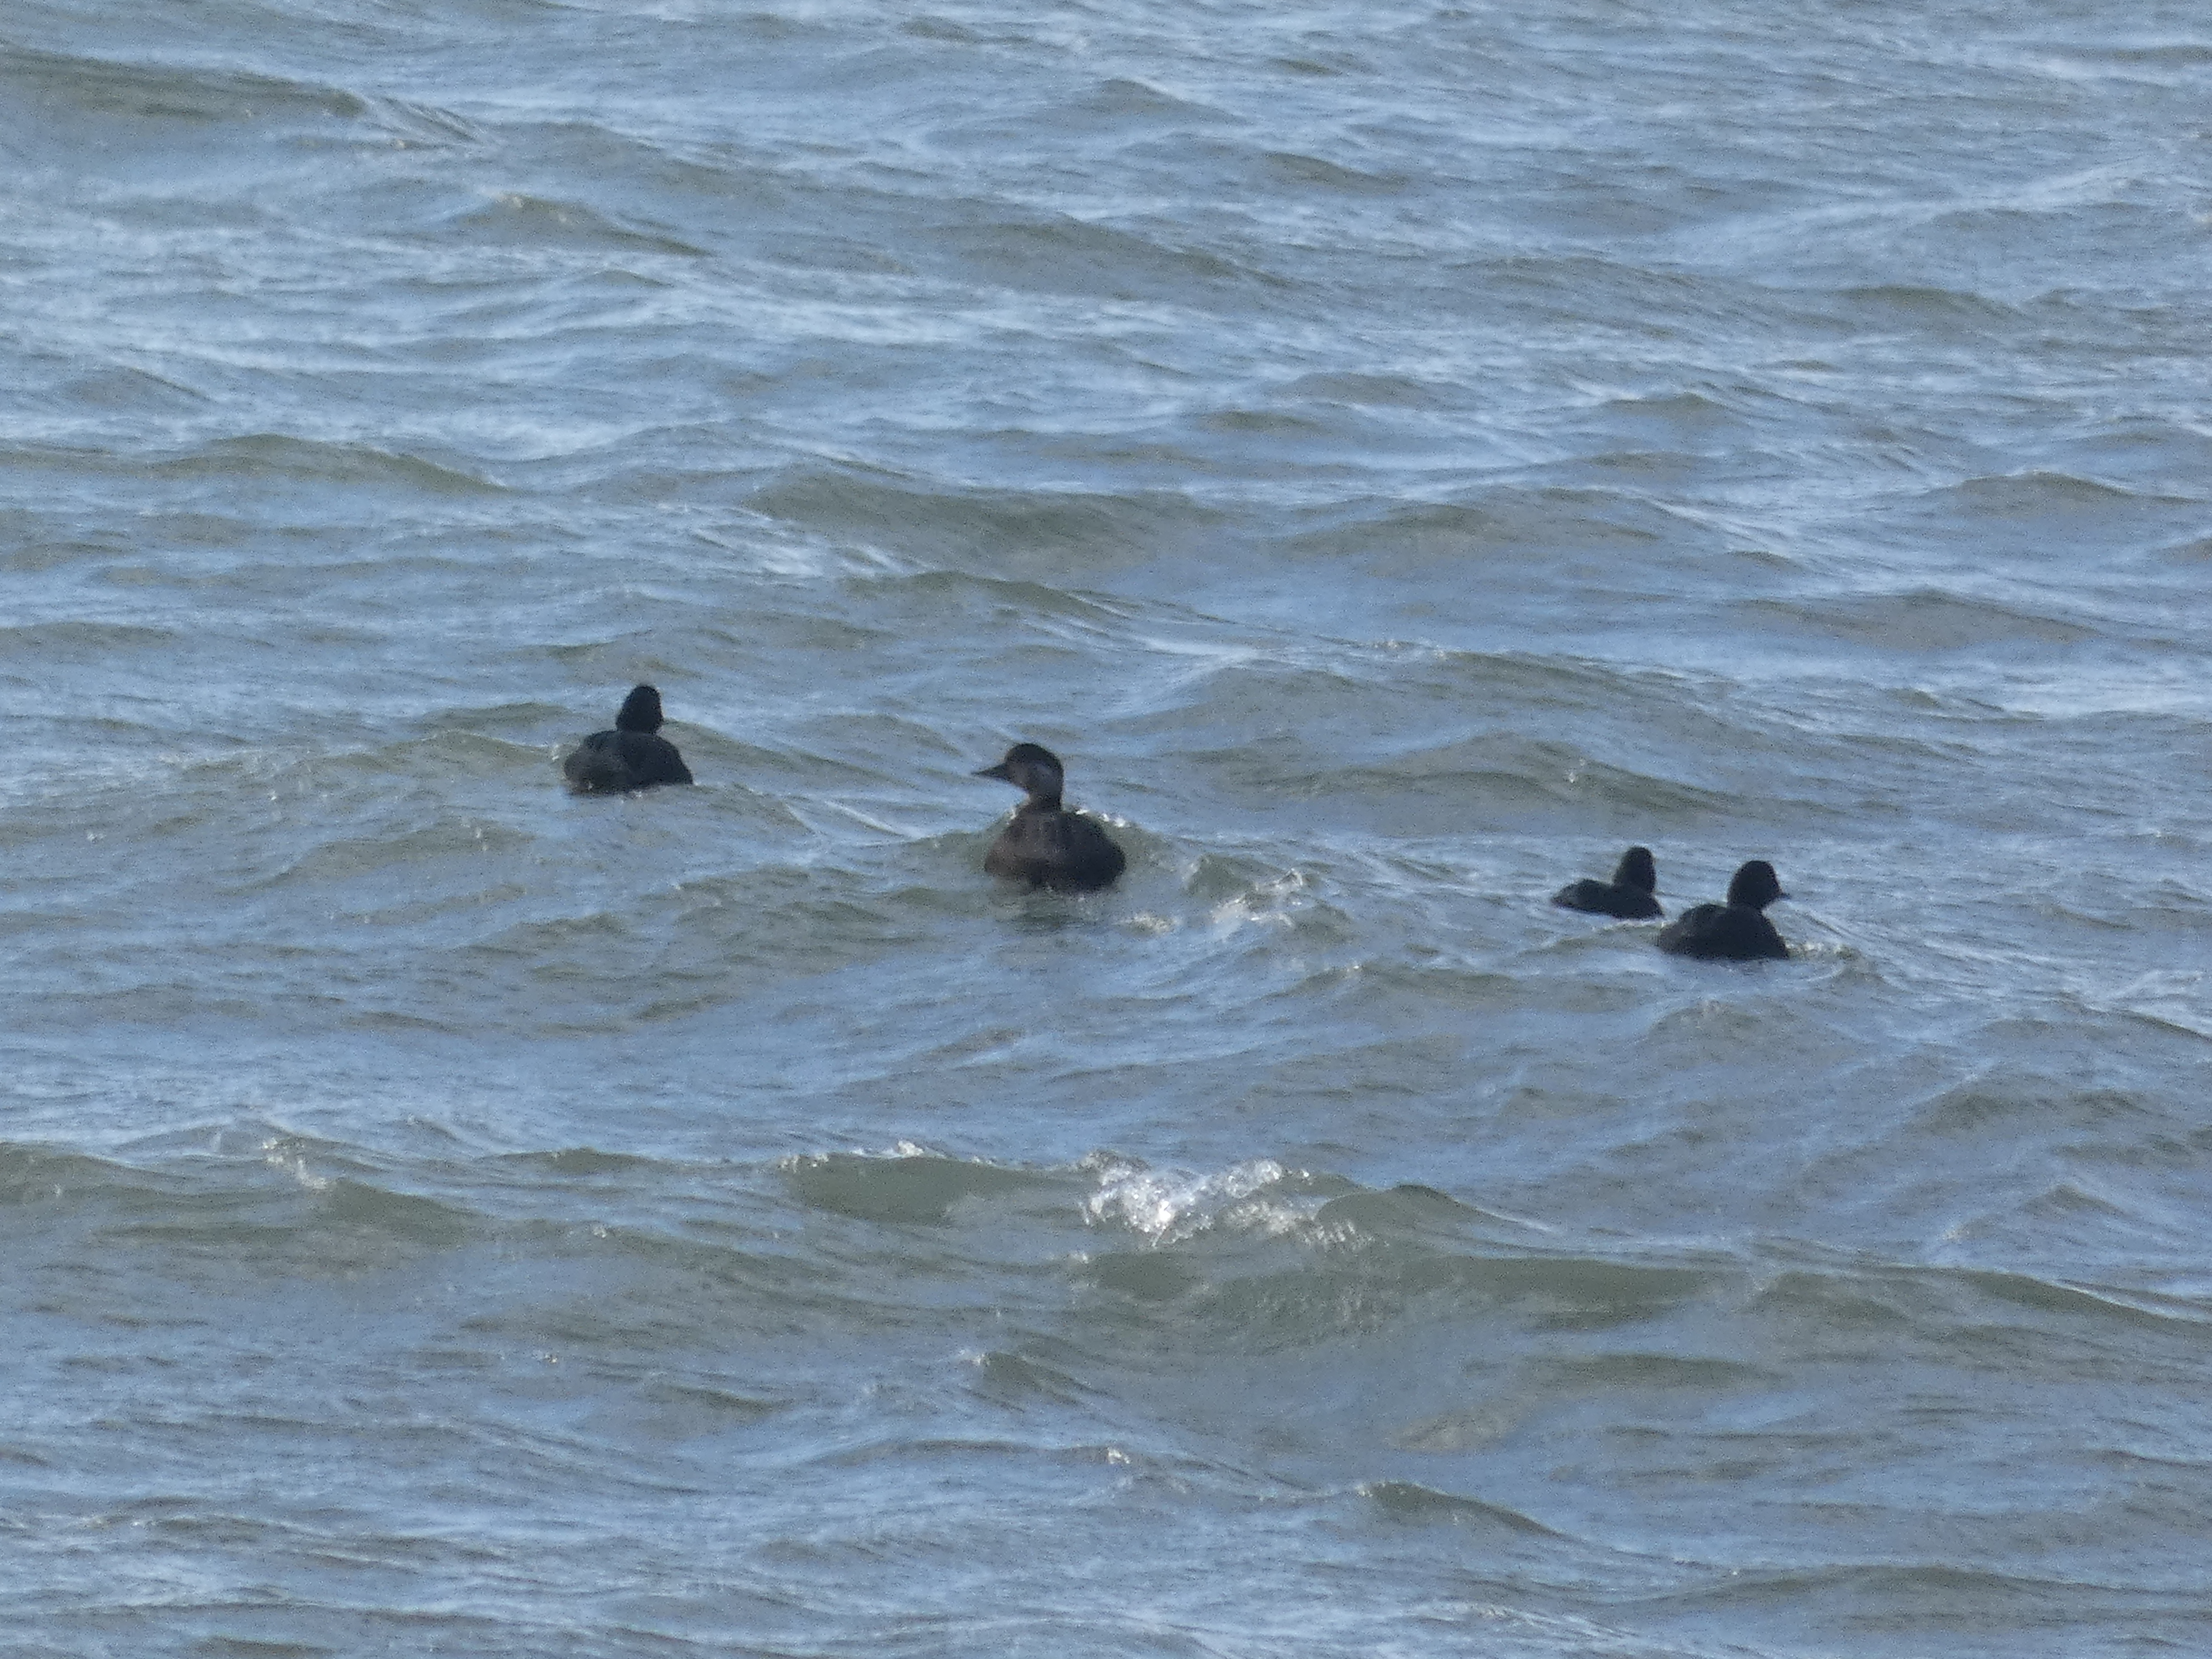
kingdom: Animalia
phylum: Chordata
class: Aves
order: Anseriformes
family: Anatidae
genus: Melanitta
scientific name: Melanitta nigra
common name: Sortand
